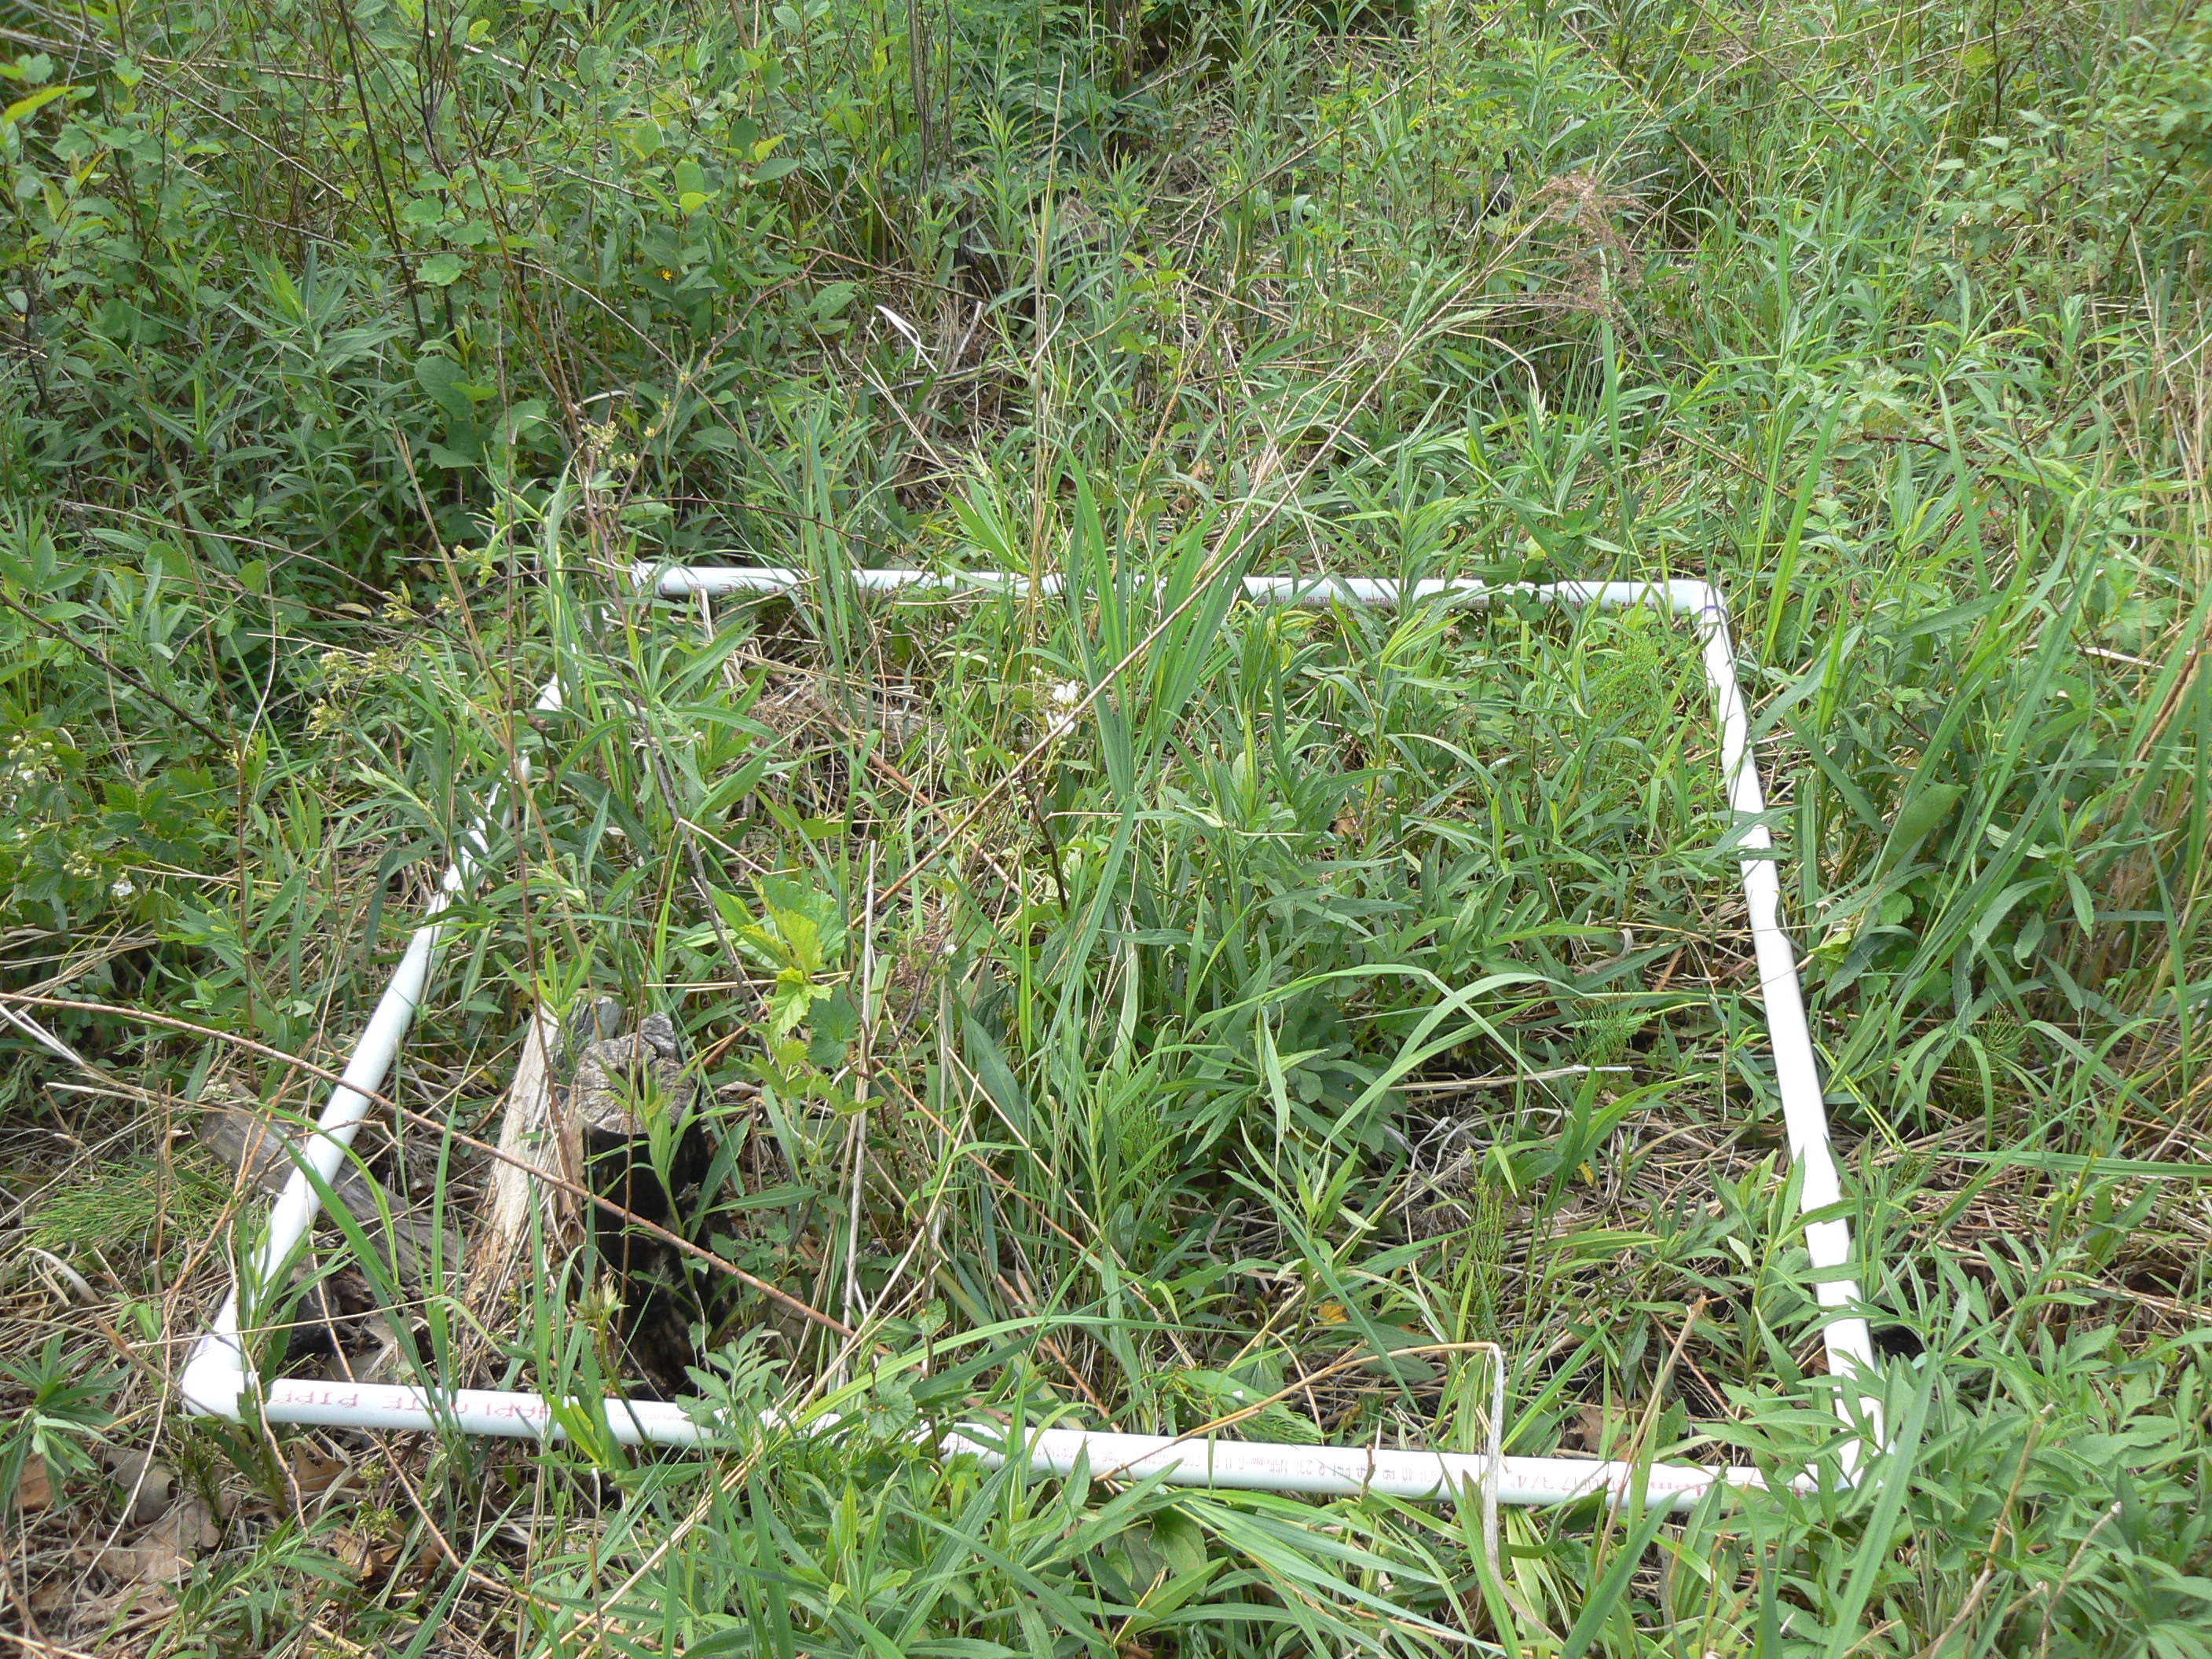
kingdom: Plantae
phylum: Tracheophyta
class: Magnoliopsida
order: Asterales
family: Asteraceae
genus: Symphyotrichum
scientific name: Symphyotrichum firmum
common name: Shining aster
